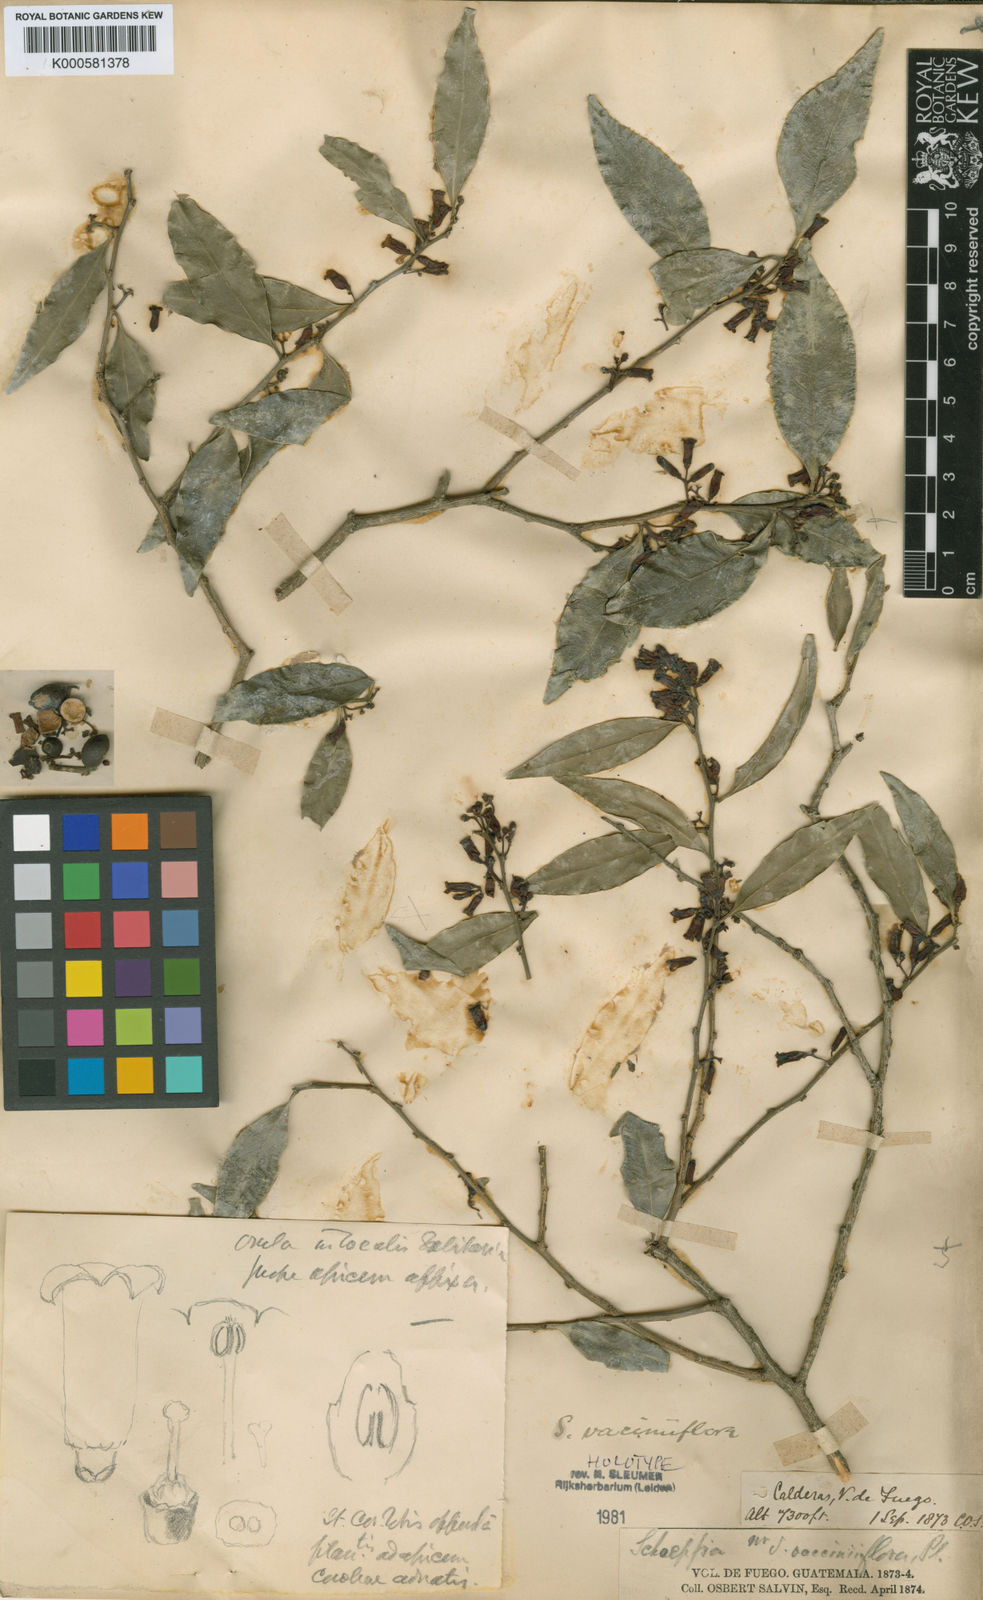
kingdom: Plantae
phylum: Tracheophyta
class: Magnoliopsida
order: Santalales
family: Schoepfiaceae
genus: Schoepfia
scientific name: Schoepfia
